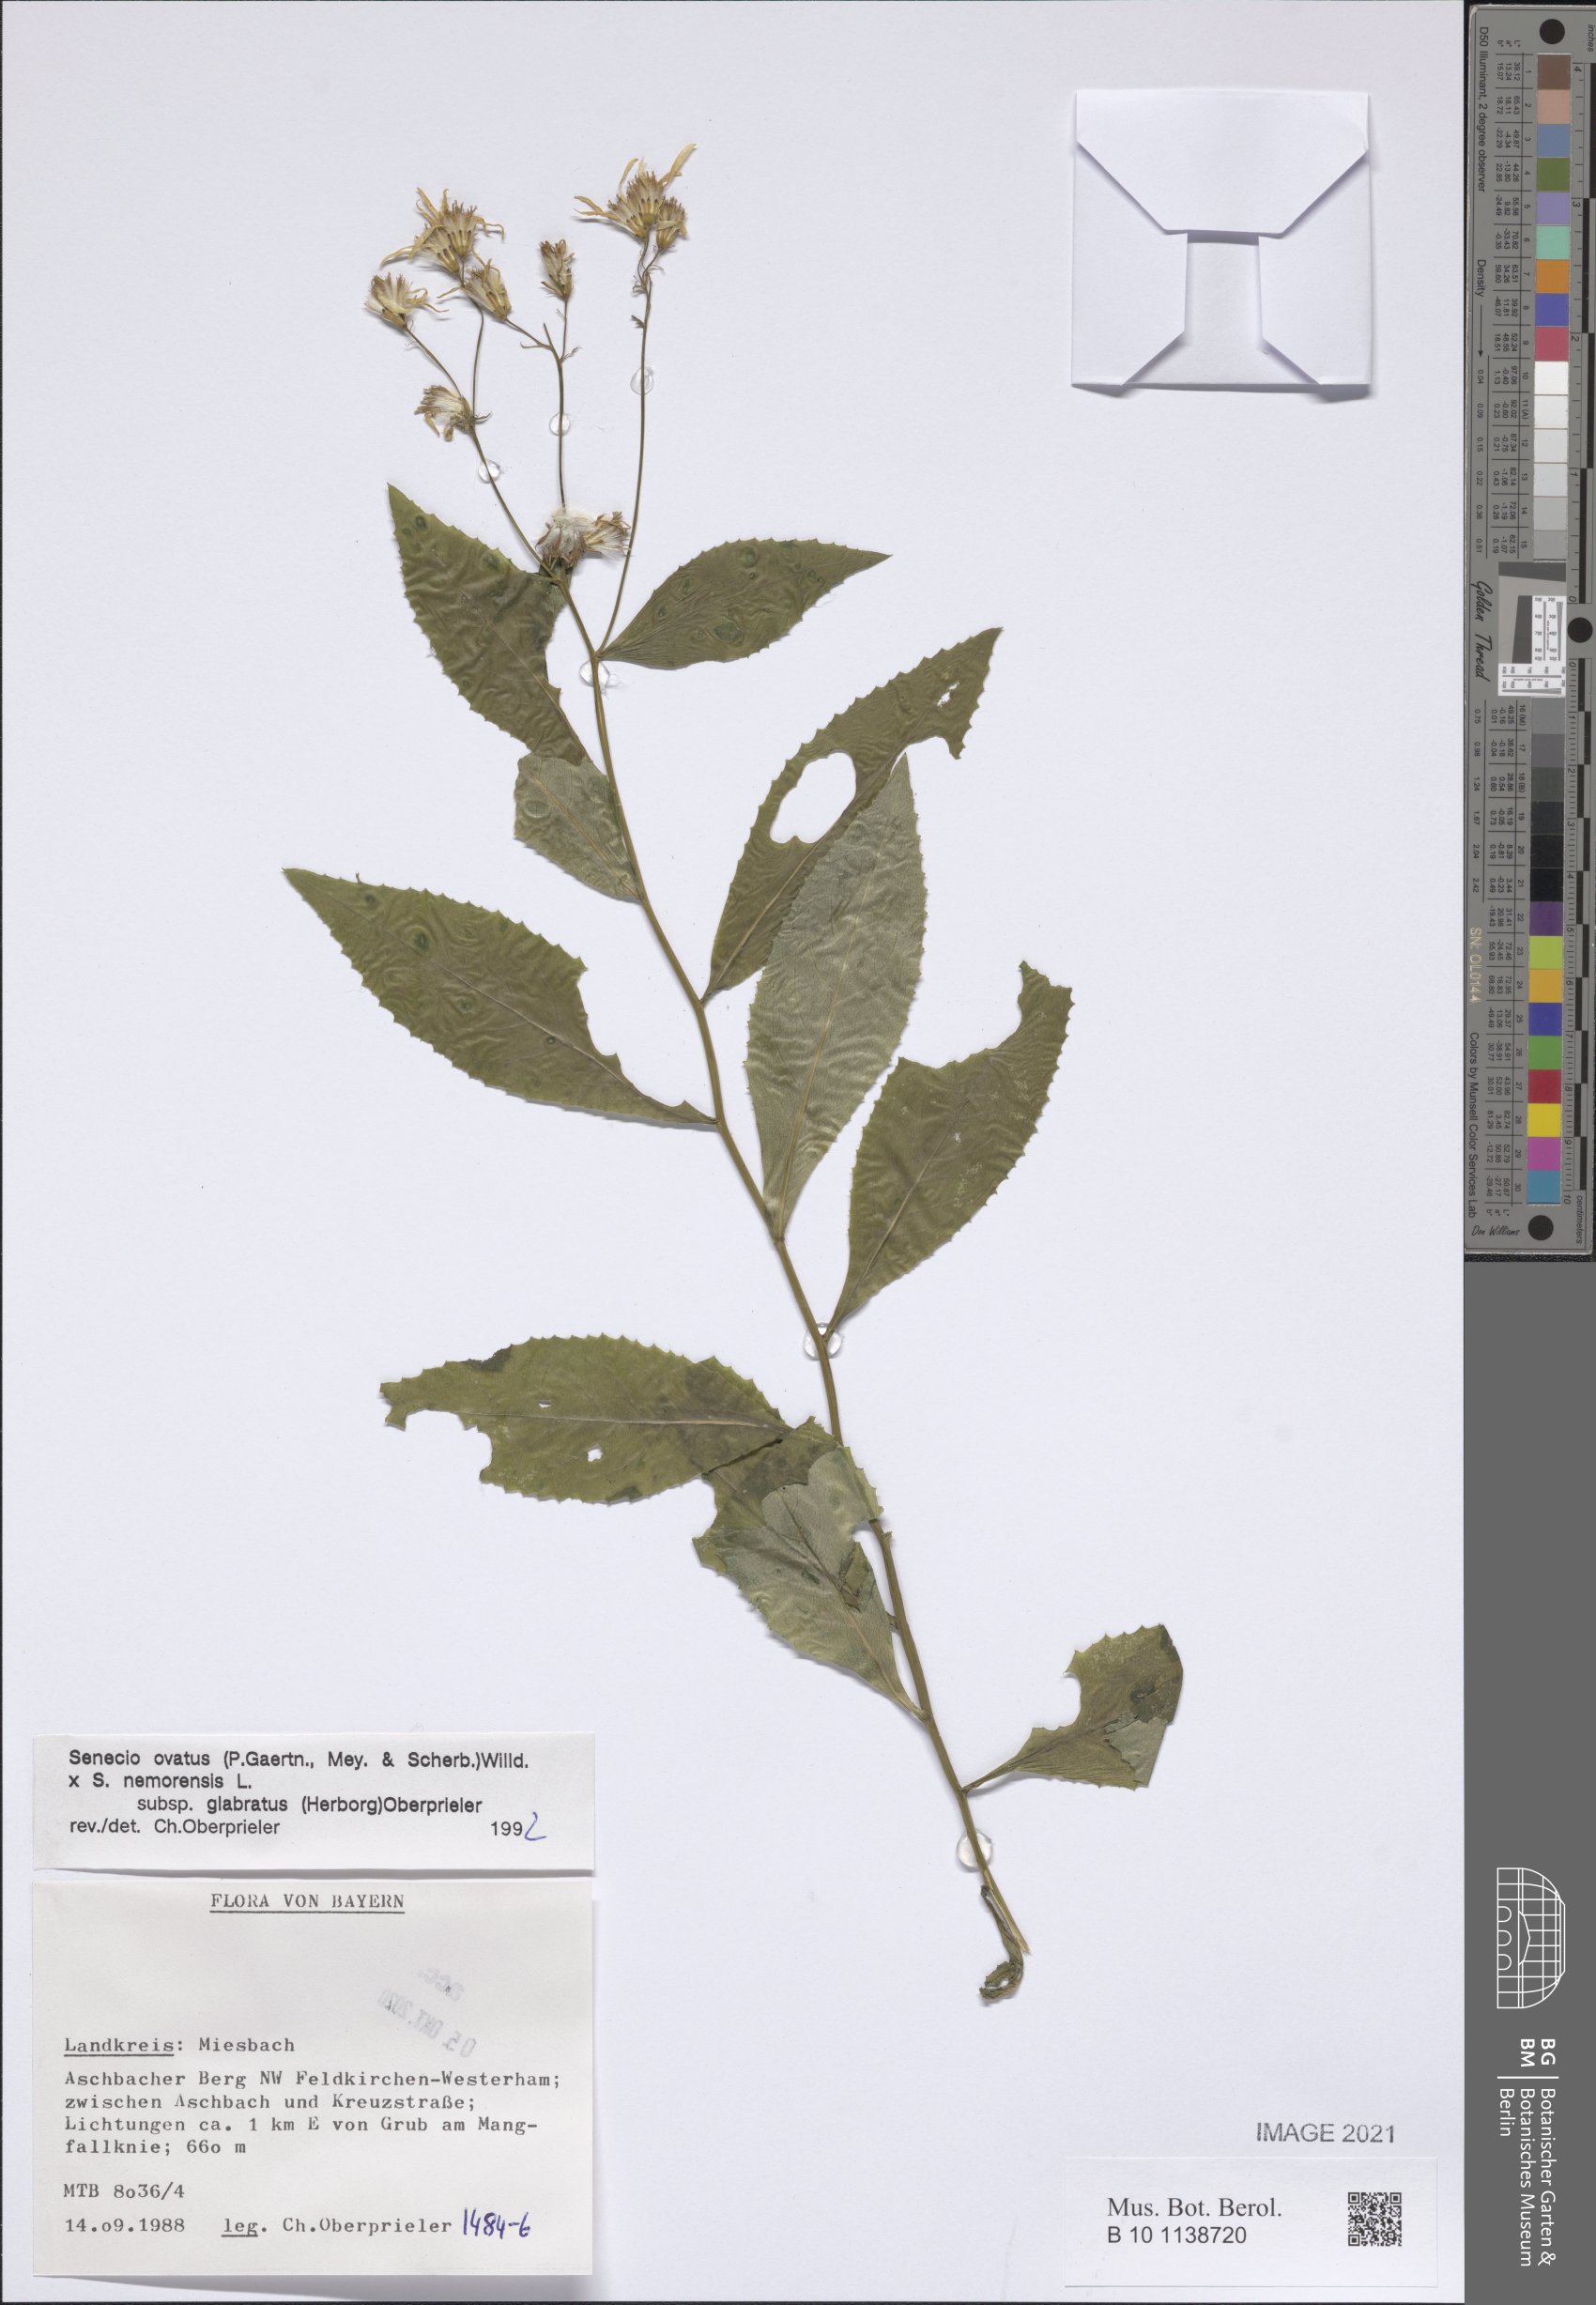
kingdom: Plantae
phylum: Tracheophyta
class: Magnoliopsida
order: Asterales
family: Asteraceae
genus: Senecio
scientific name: Senecio ovatus
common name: Wood ragwort
